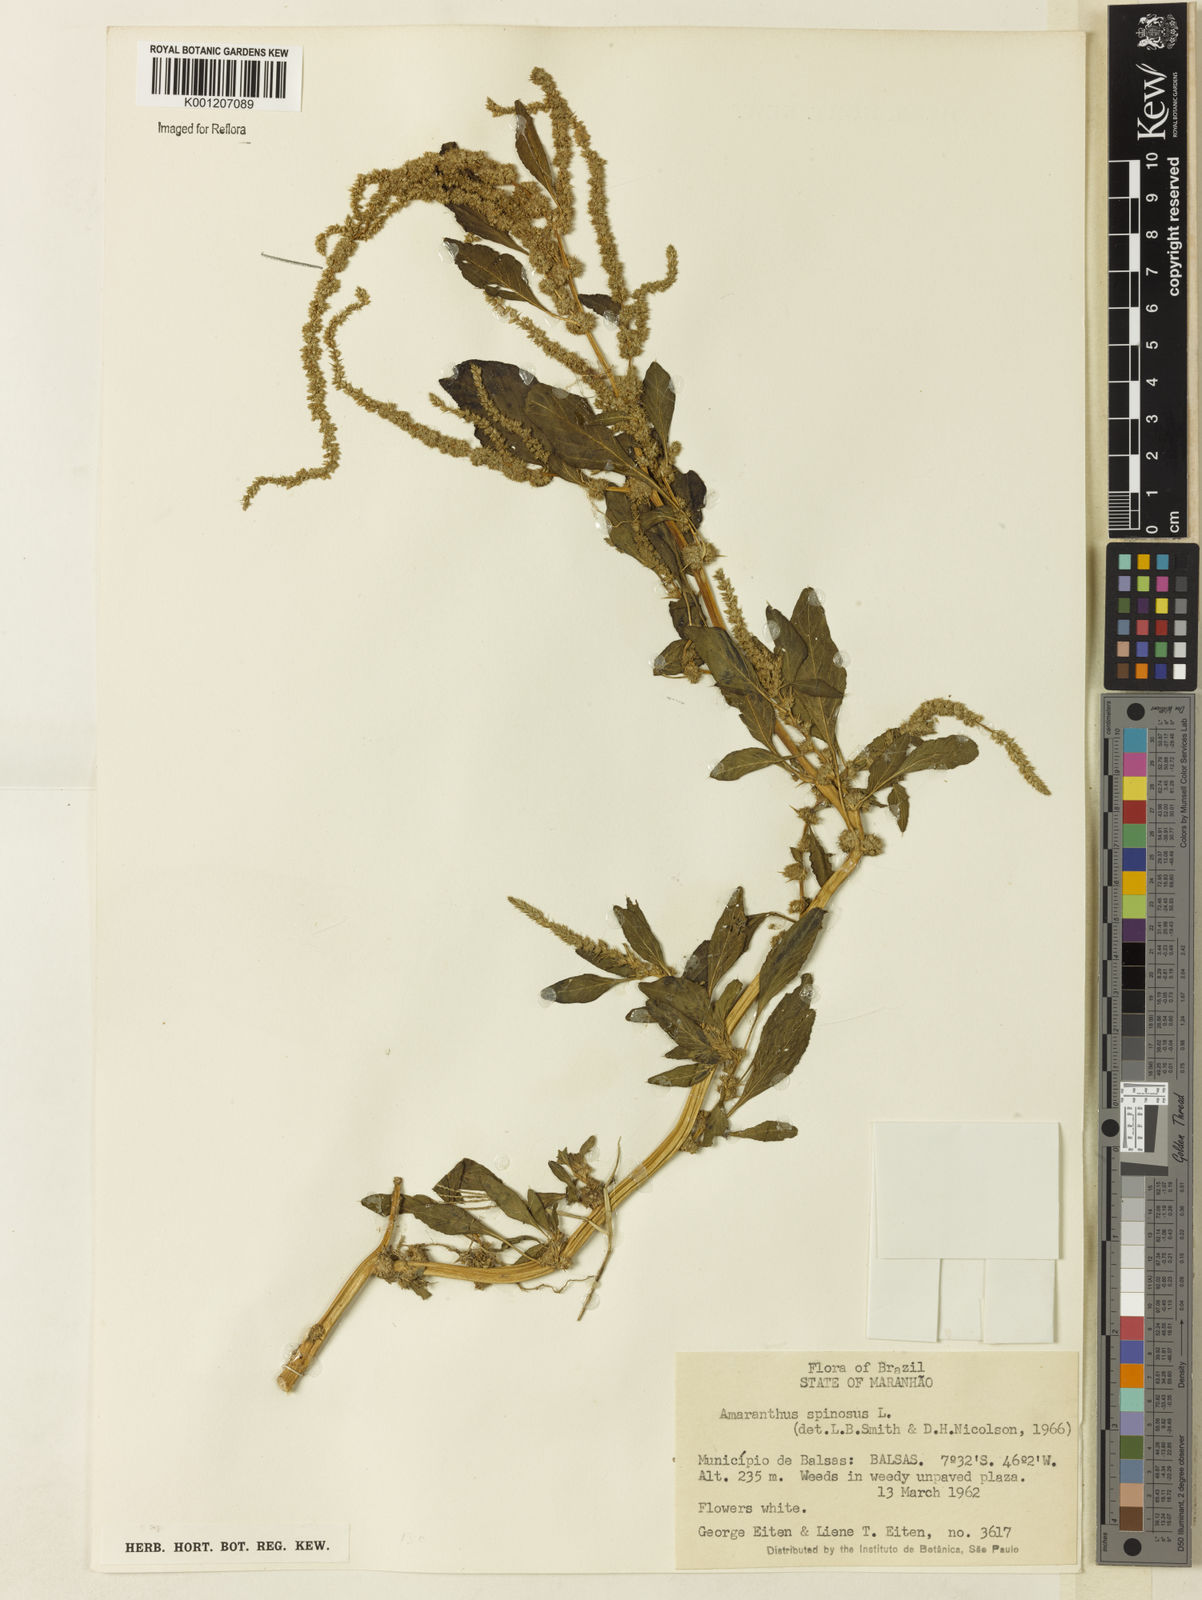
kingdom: Plantae
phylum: Tracheophyta
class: Magnoliopsida
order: Caryophyllales
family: Amaranthaceae
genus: Amaranthus
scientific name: Amaranthus spinosus
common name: Spiny amaranth
